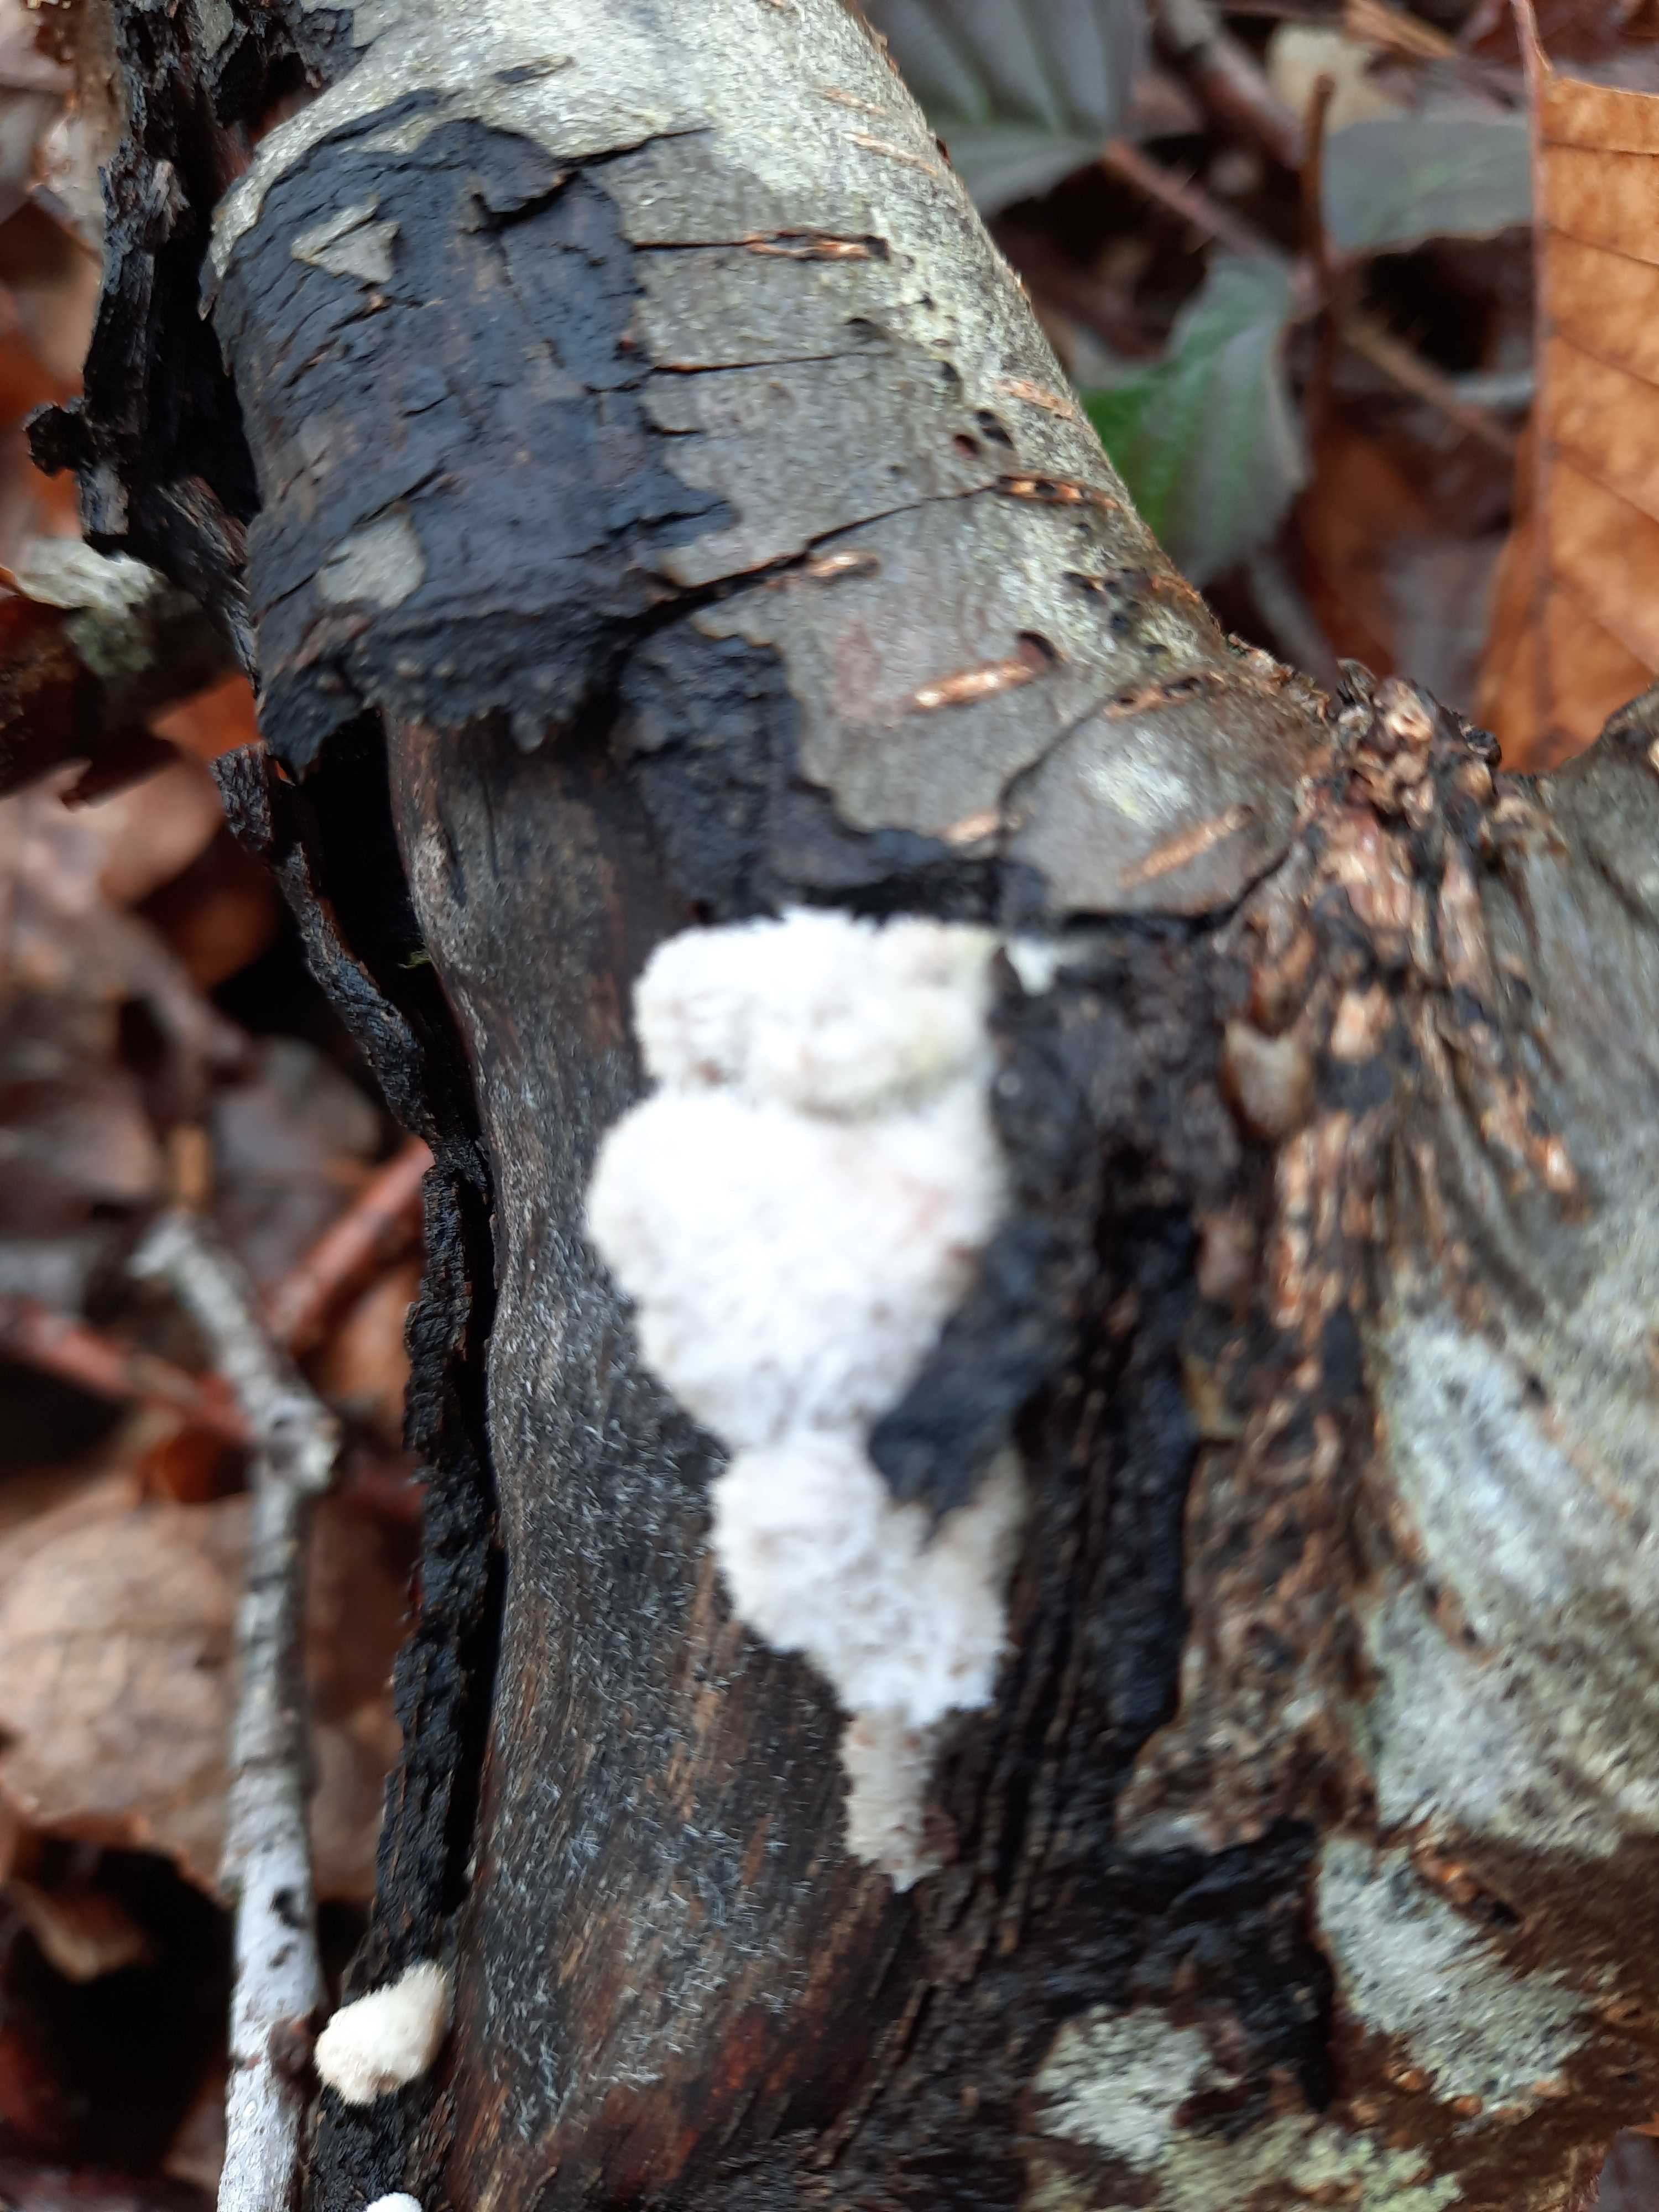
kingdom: Fungi
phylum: Basidiomycota
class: Agaricomycetes
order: Agaricales
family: Schizophyllaceae
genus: Schizophyllum
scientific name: Schizophyllum commune
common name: kløvblad
